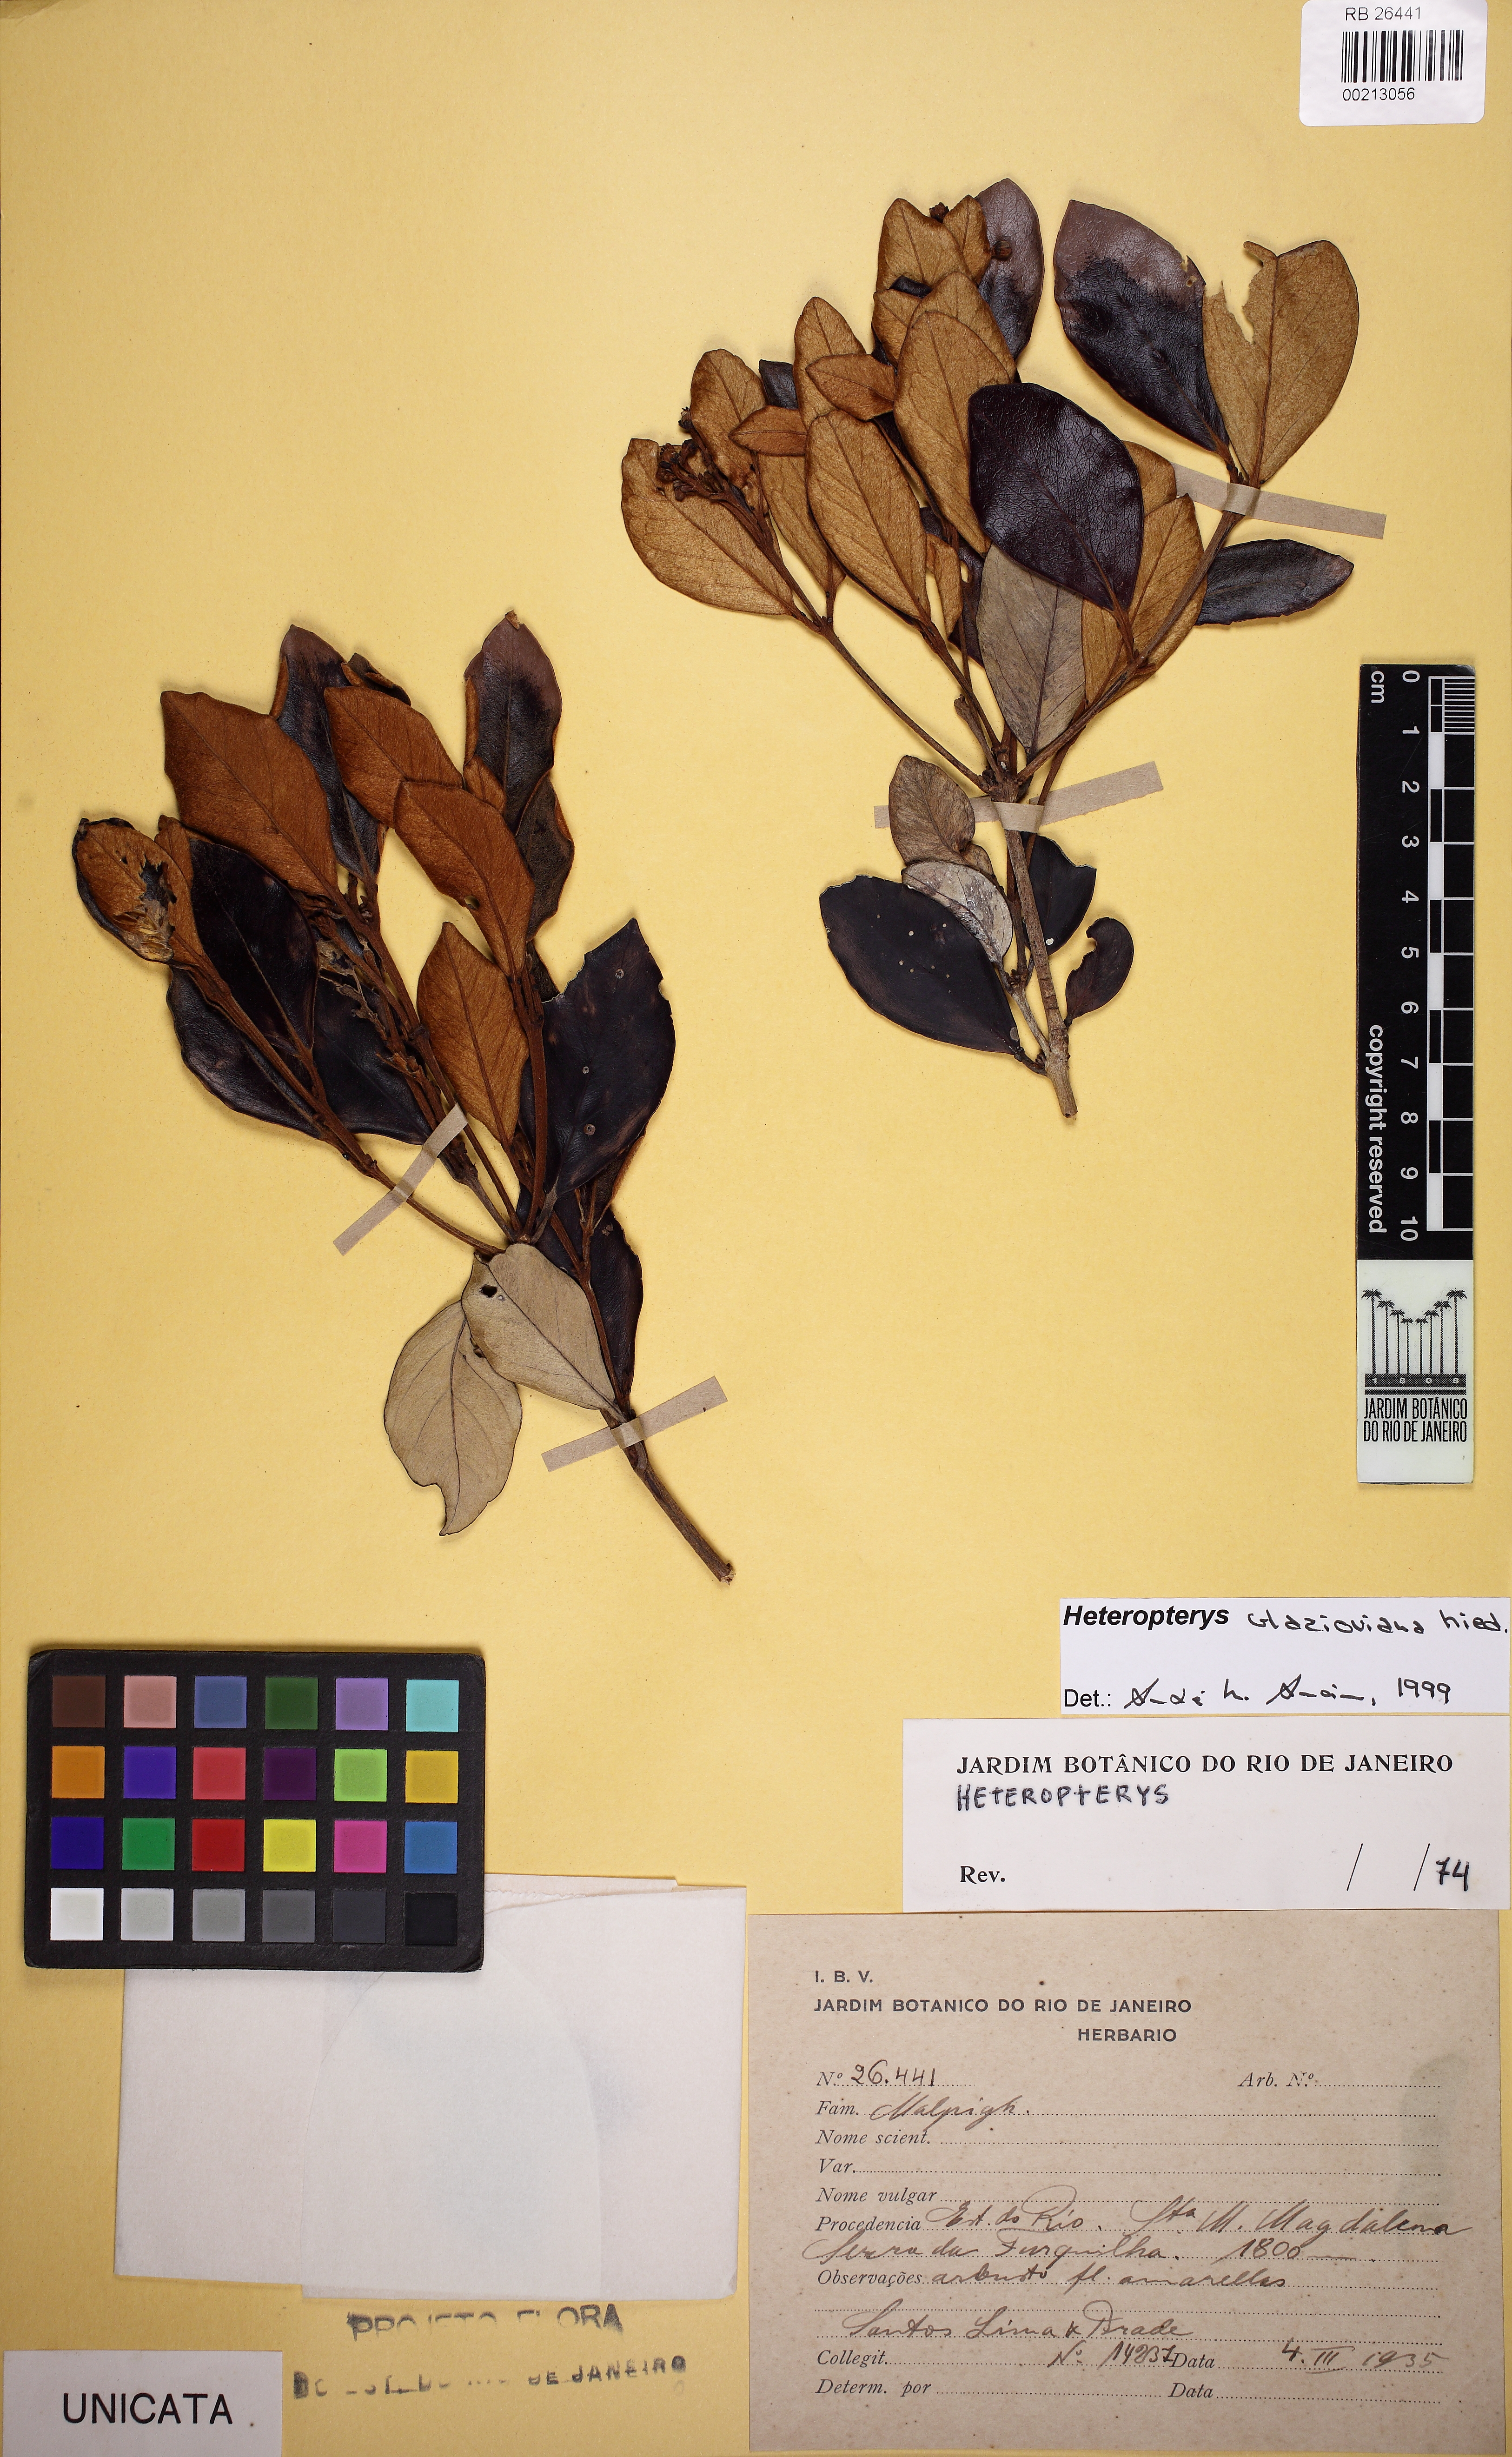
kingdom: Plantae
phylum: Tracheophyta
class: Magnoliopsida
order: Malpighiales
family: Malpighiaceae
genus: Heteropterys
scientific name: Heteropterys glazioviana
